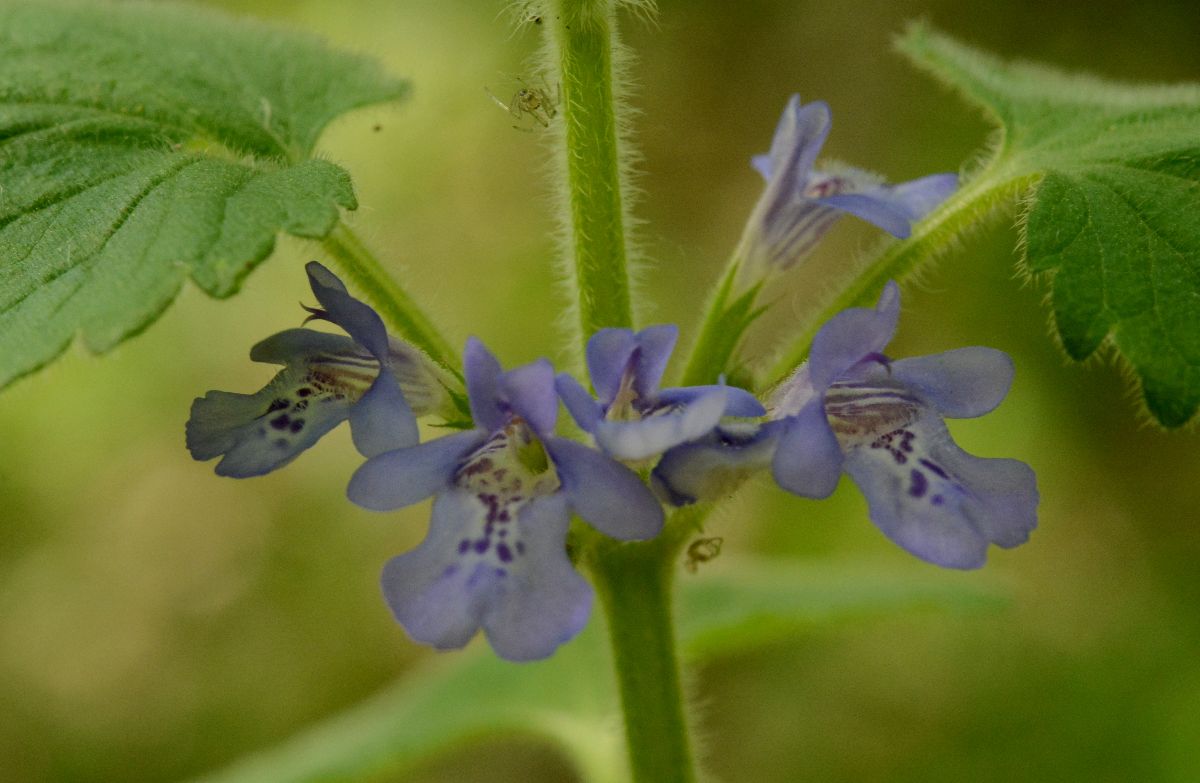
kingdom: Plantae
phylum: Tracheophyta
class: Magnoliopsida
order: Lamiales
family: Lamiaceae
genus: Glechoma
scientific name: Glechoma hederacea
